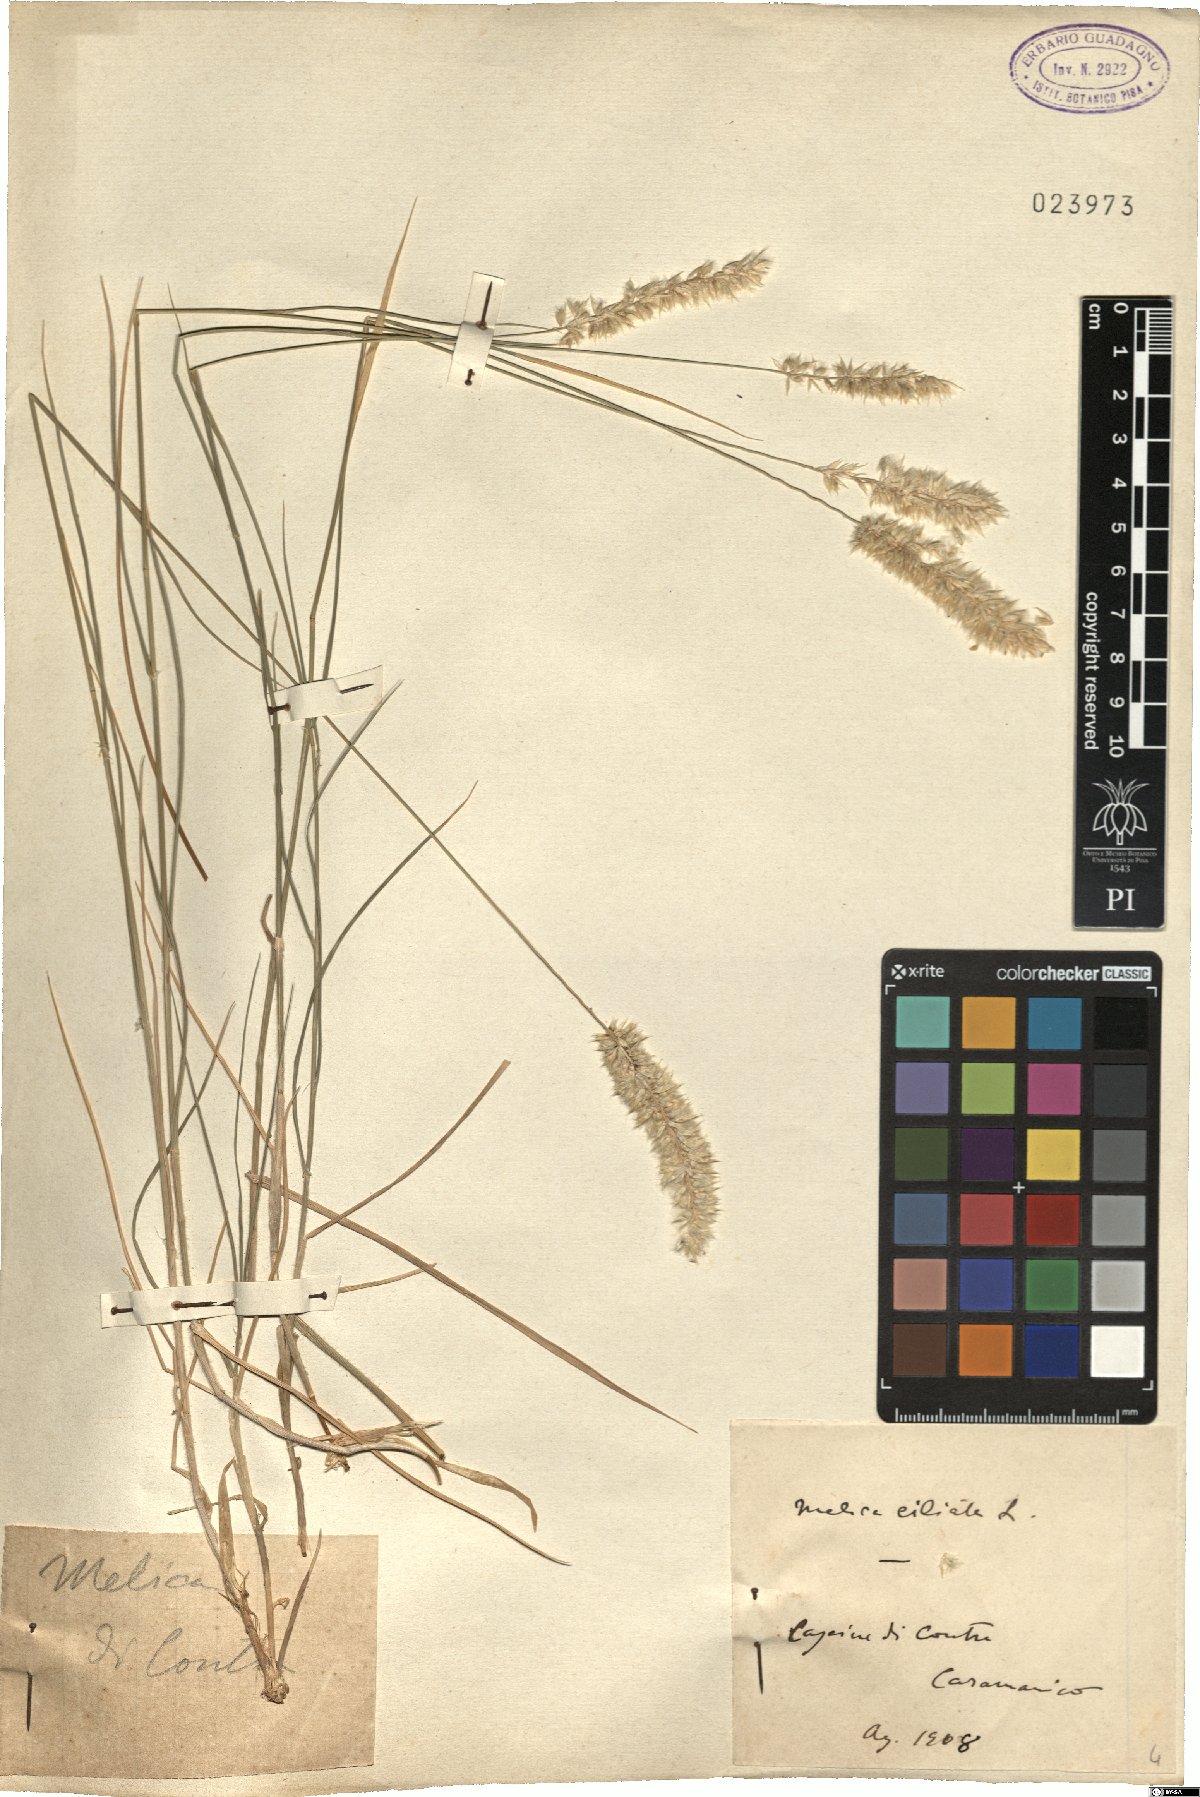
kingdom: Plantae
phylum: Tracheophyta
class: Liliopsida
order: Poales
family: Poaceae
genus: Melica
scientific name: Melica ciliata
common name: Hairy melicgrass
